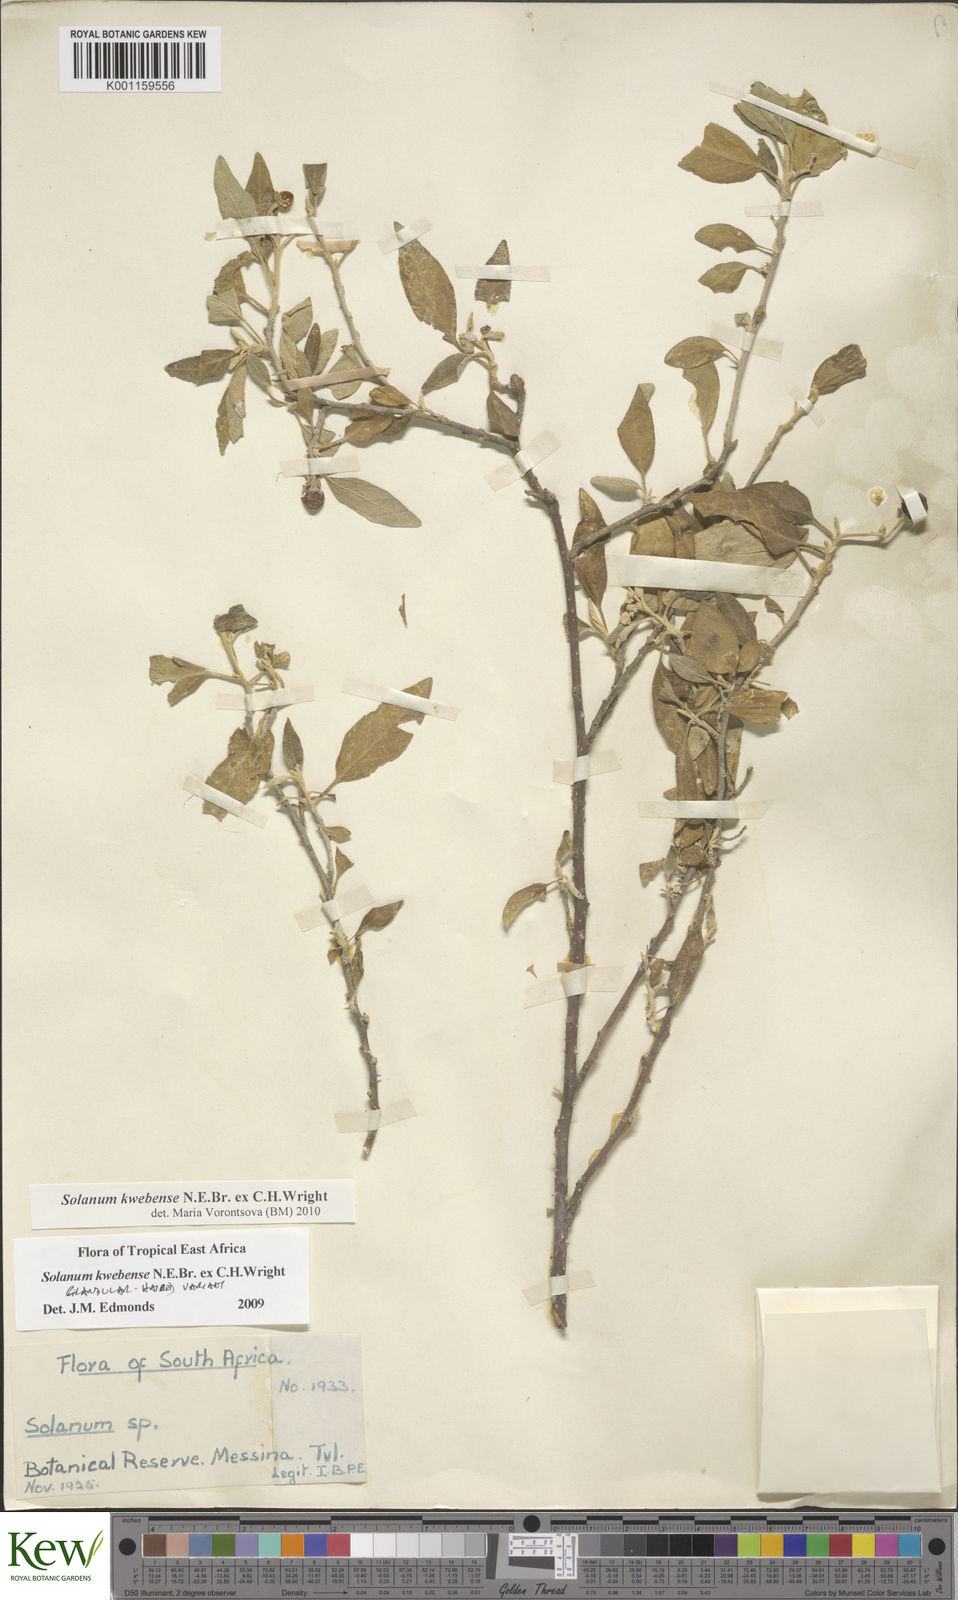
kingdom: Plantae
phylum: Tracheophyta
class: Magnoliopsida
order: Solanales
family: Solanaceae
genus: Solanum
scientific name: Solanum tettense
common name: Mozambique bitter apple
